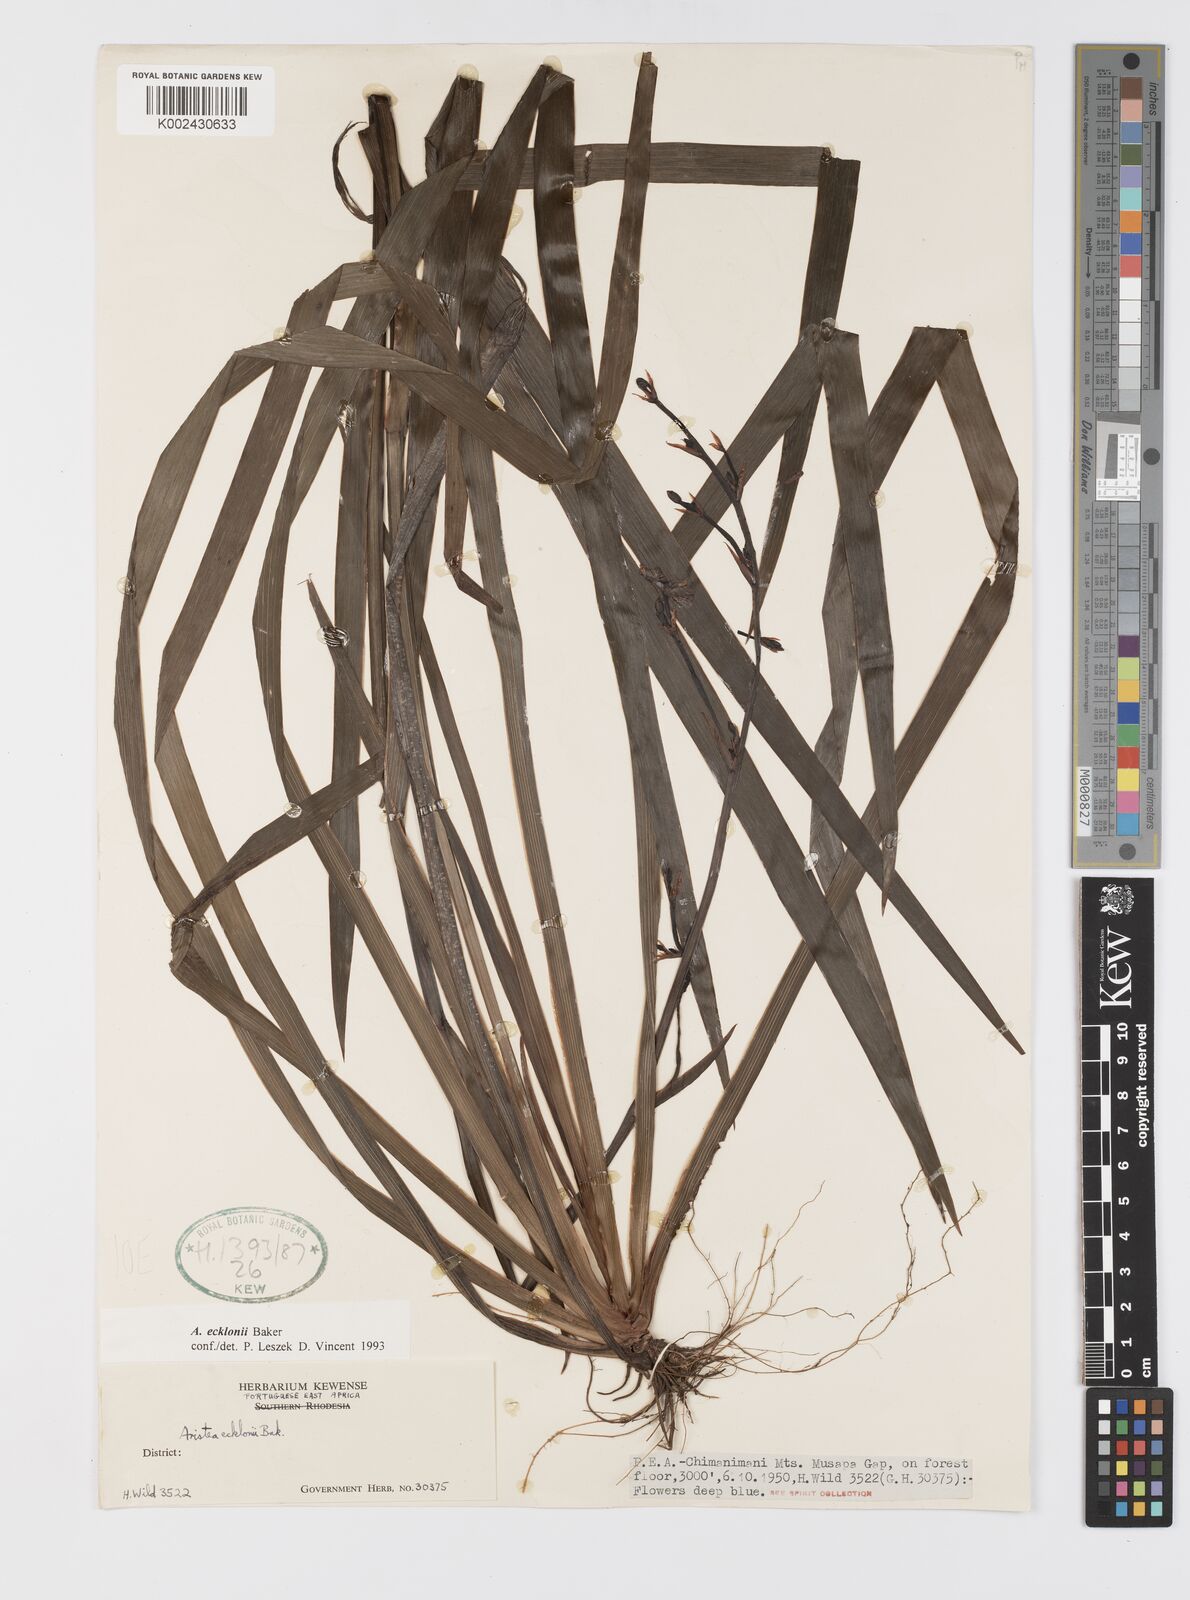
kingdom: Plantae
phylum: Tracheophyta
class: Liliopsida
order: Asparagales
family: Iridaceae
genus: Aristea
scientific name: Aristea ecklonii
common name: Blue corn-lily
